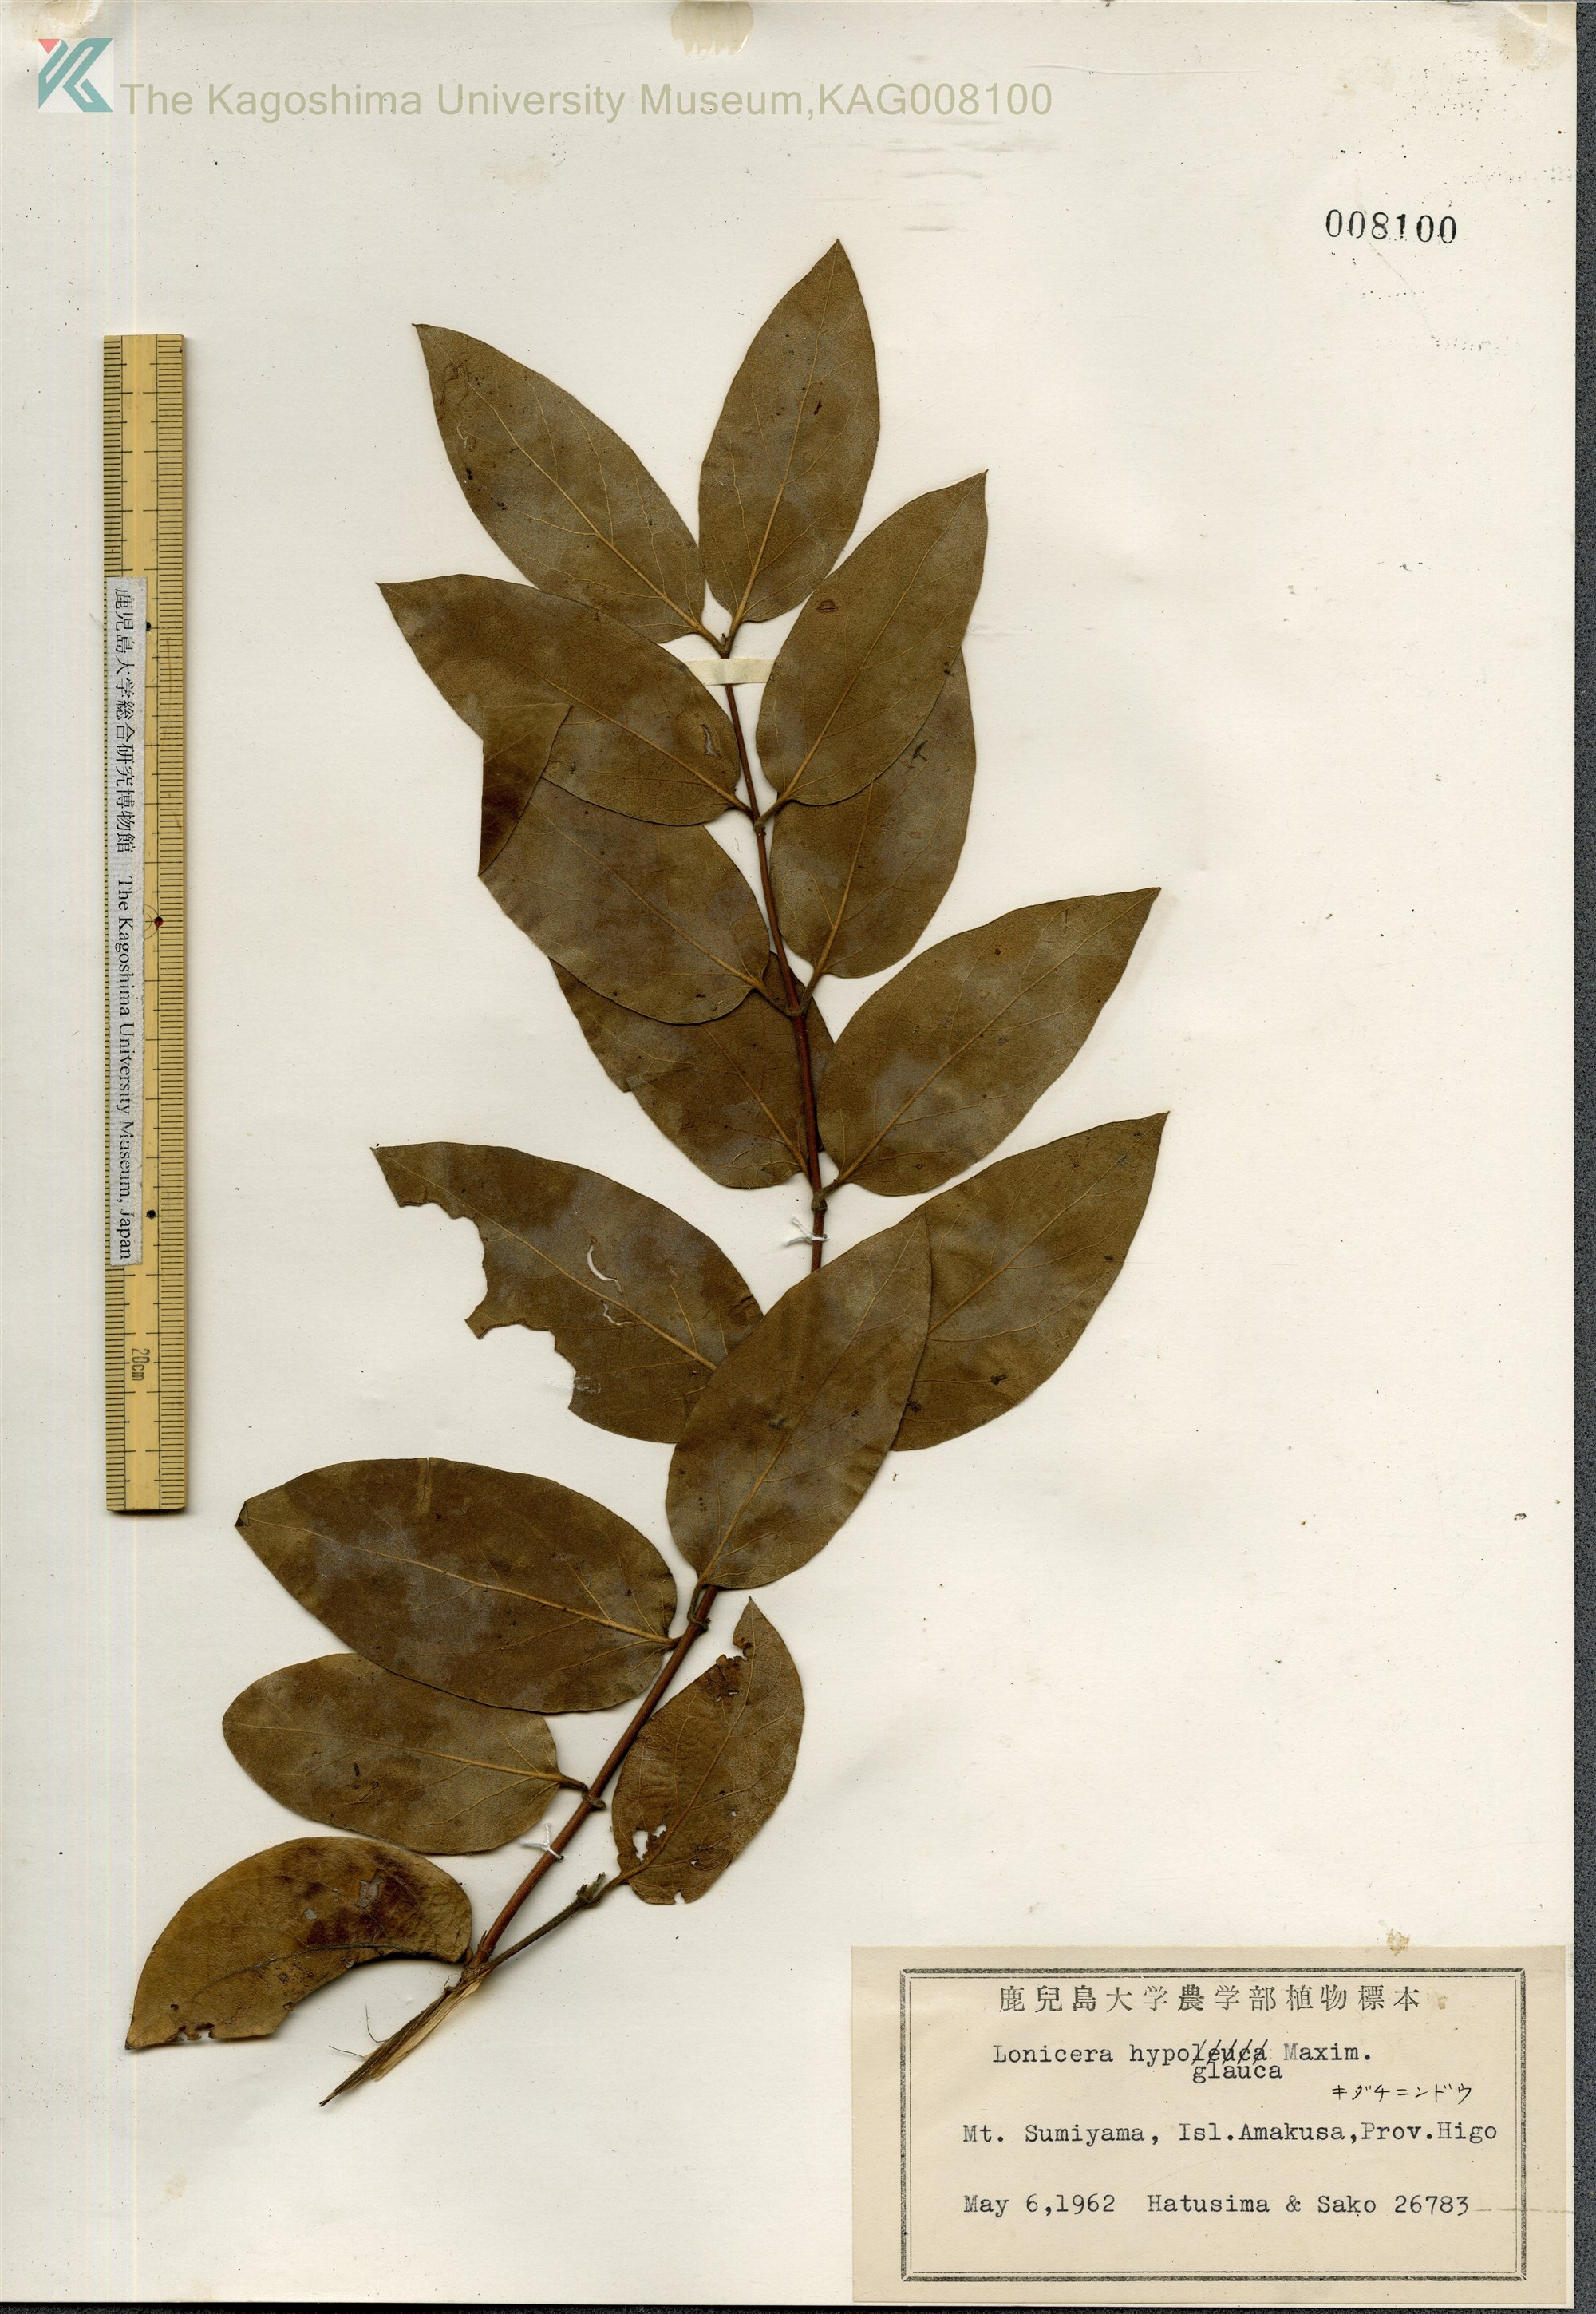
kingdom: Plantae
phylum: Tracheophyta
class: Magnoliopsida
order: Dipsacales
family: Caprifoliaceae
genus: Lonicera
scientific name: Lonicera hypoglauca
